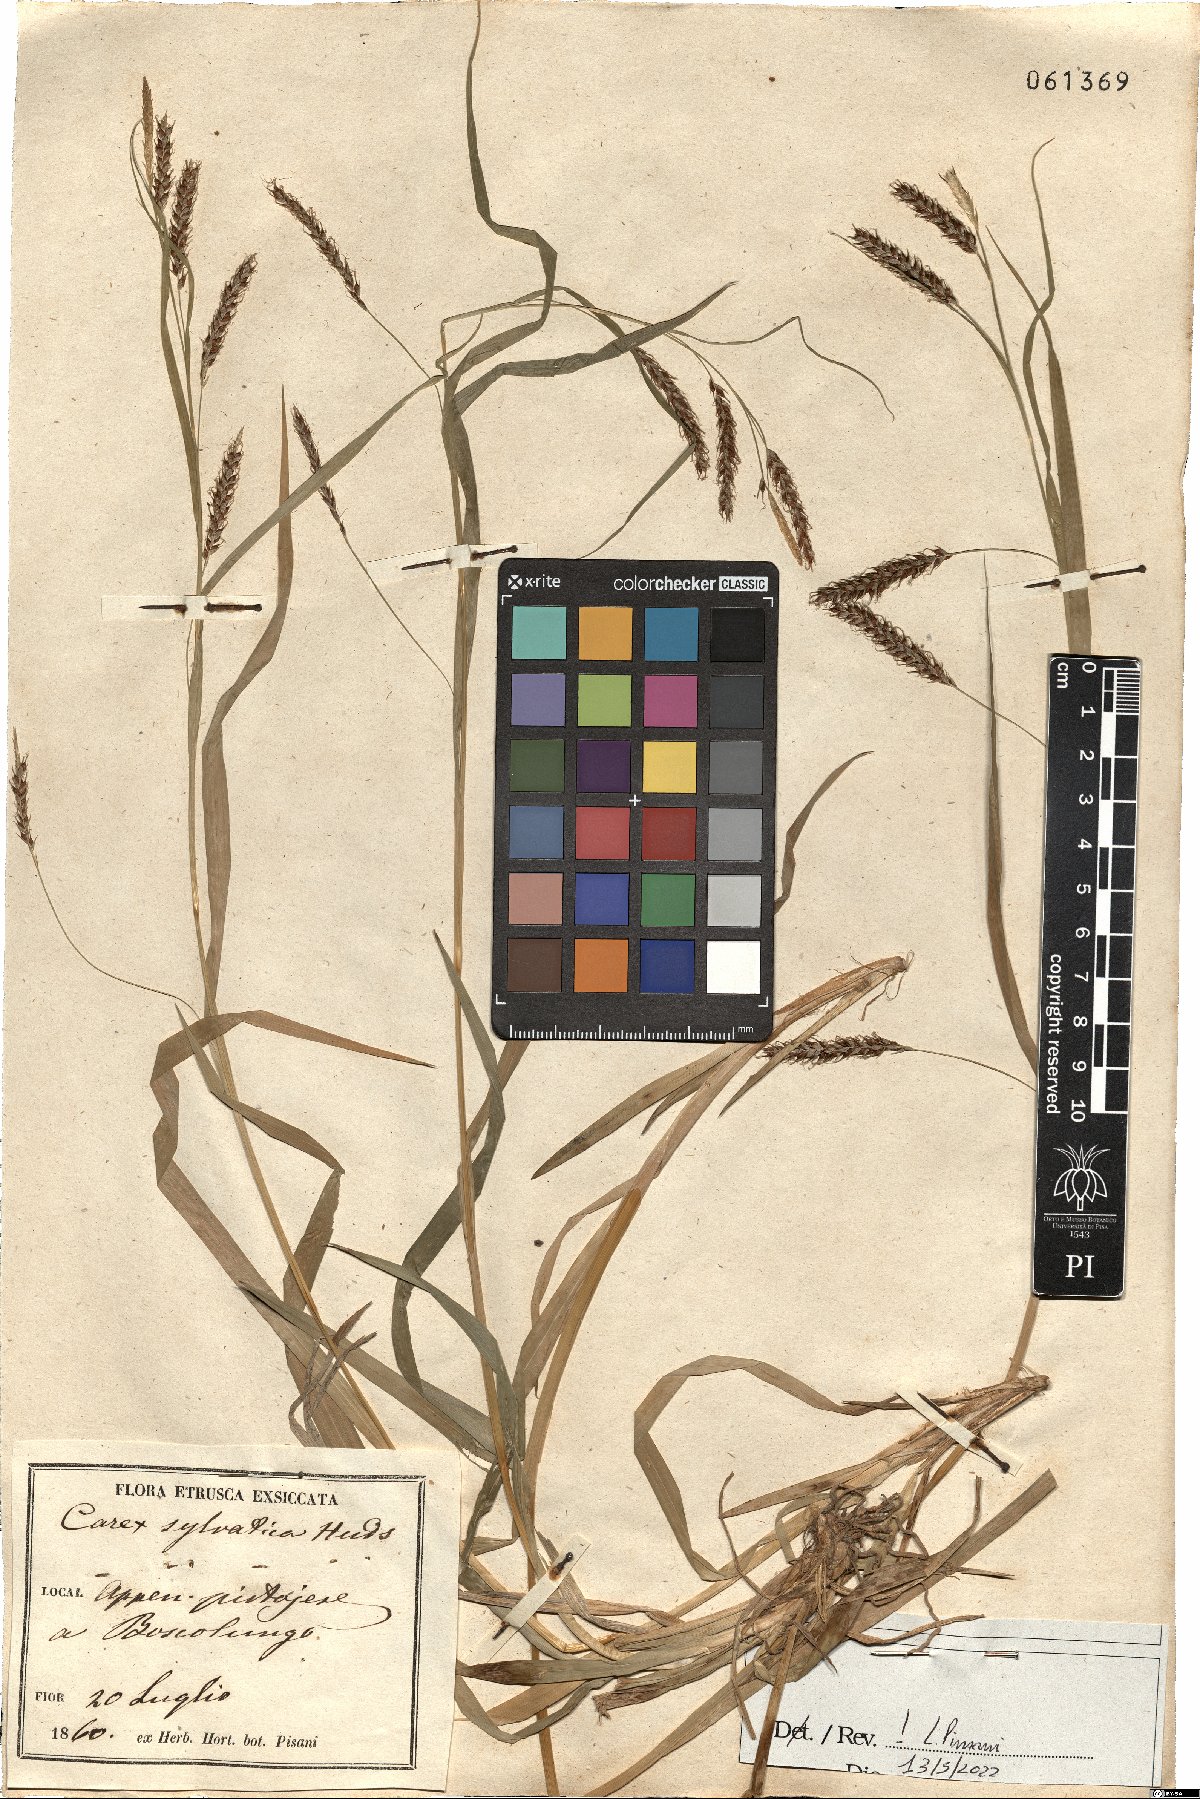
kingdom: Plantae
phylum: Tracheophyta
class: Liliopsida
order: Poales
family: Cyperaceae
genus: Carex
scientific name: Carex sylvatica
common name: Wood-sedge
